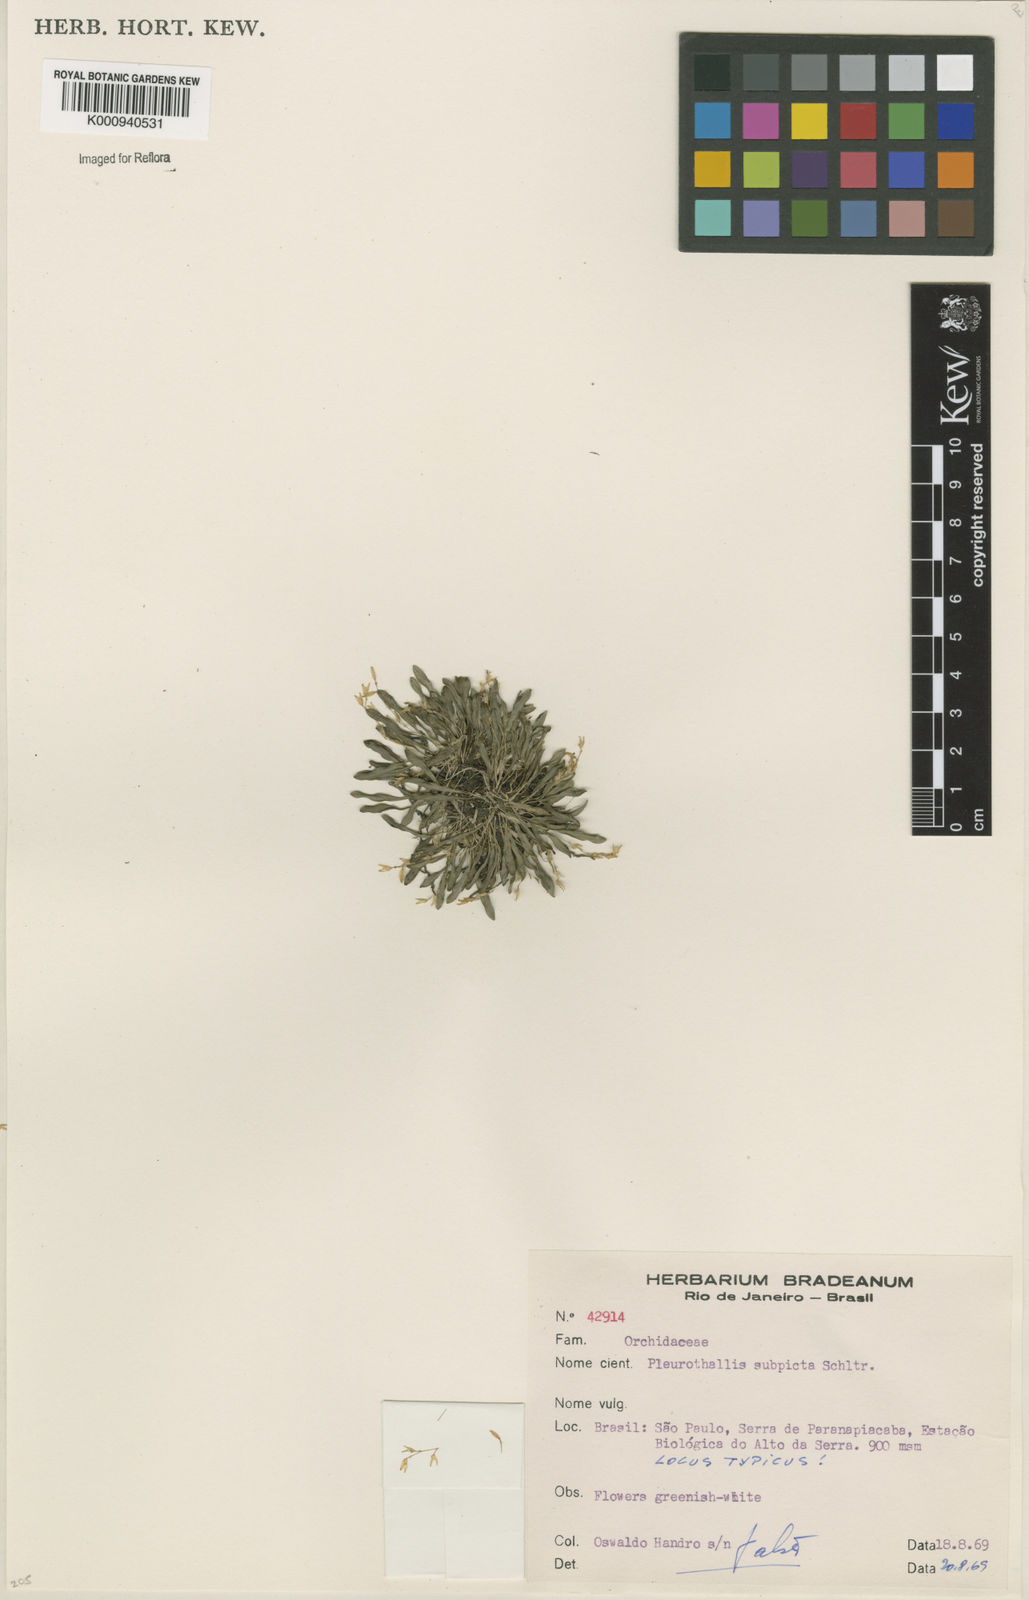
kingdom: Plantae
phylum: Tracheophyta
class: Liliopsida
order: Asparagales
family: Orchidaceae
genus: Specklinia
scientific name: Specklinia subpicta
